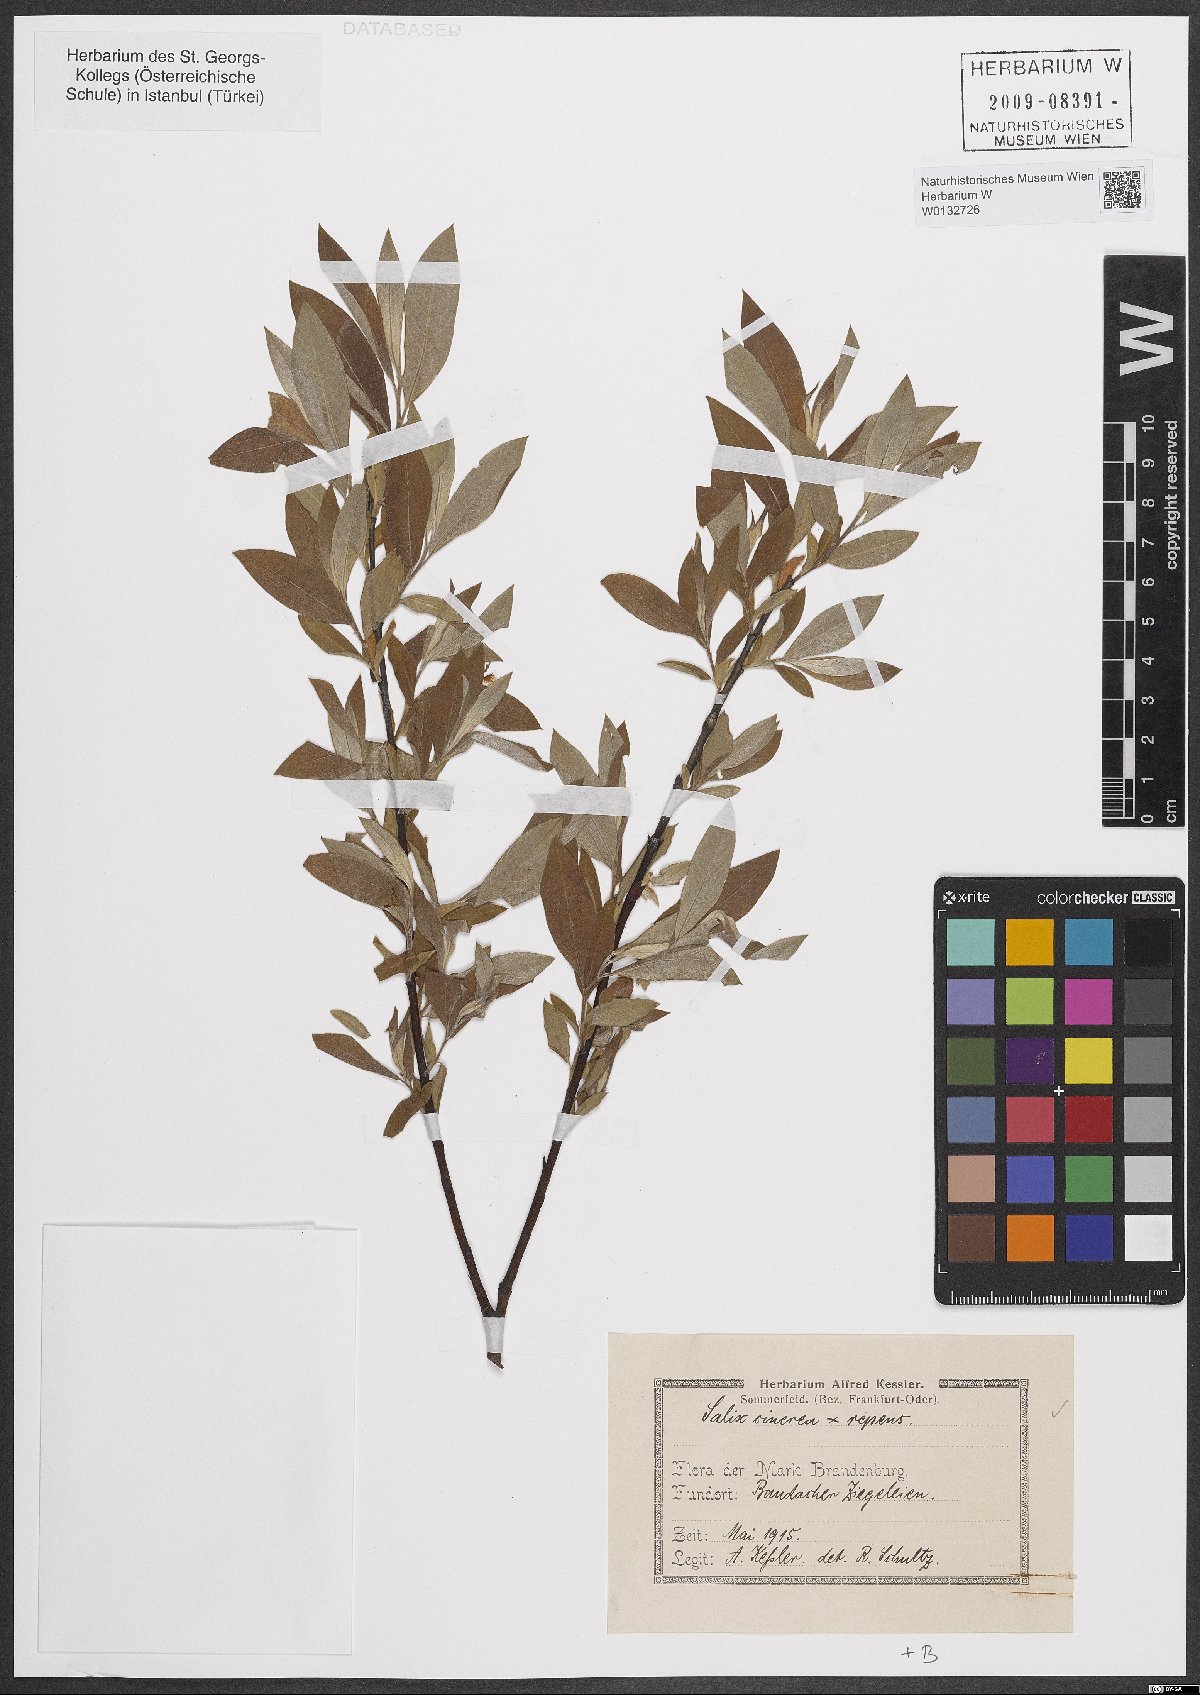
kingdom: Plantae
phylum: Tracheophyta
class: Magnoliopsida
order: Malpighiales
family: Salicaceae
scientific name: Salicaceae
